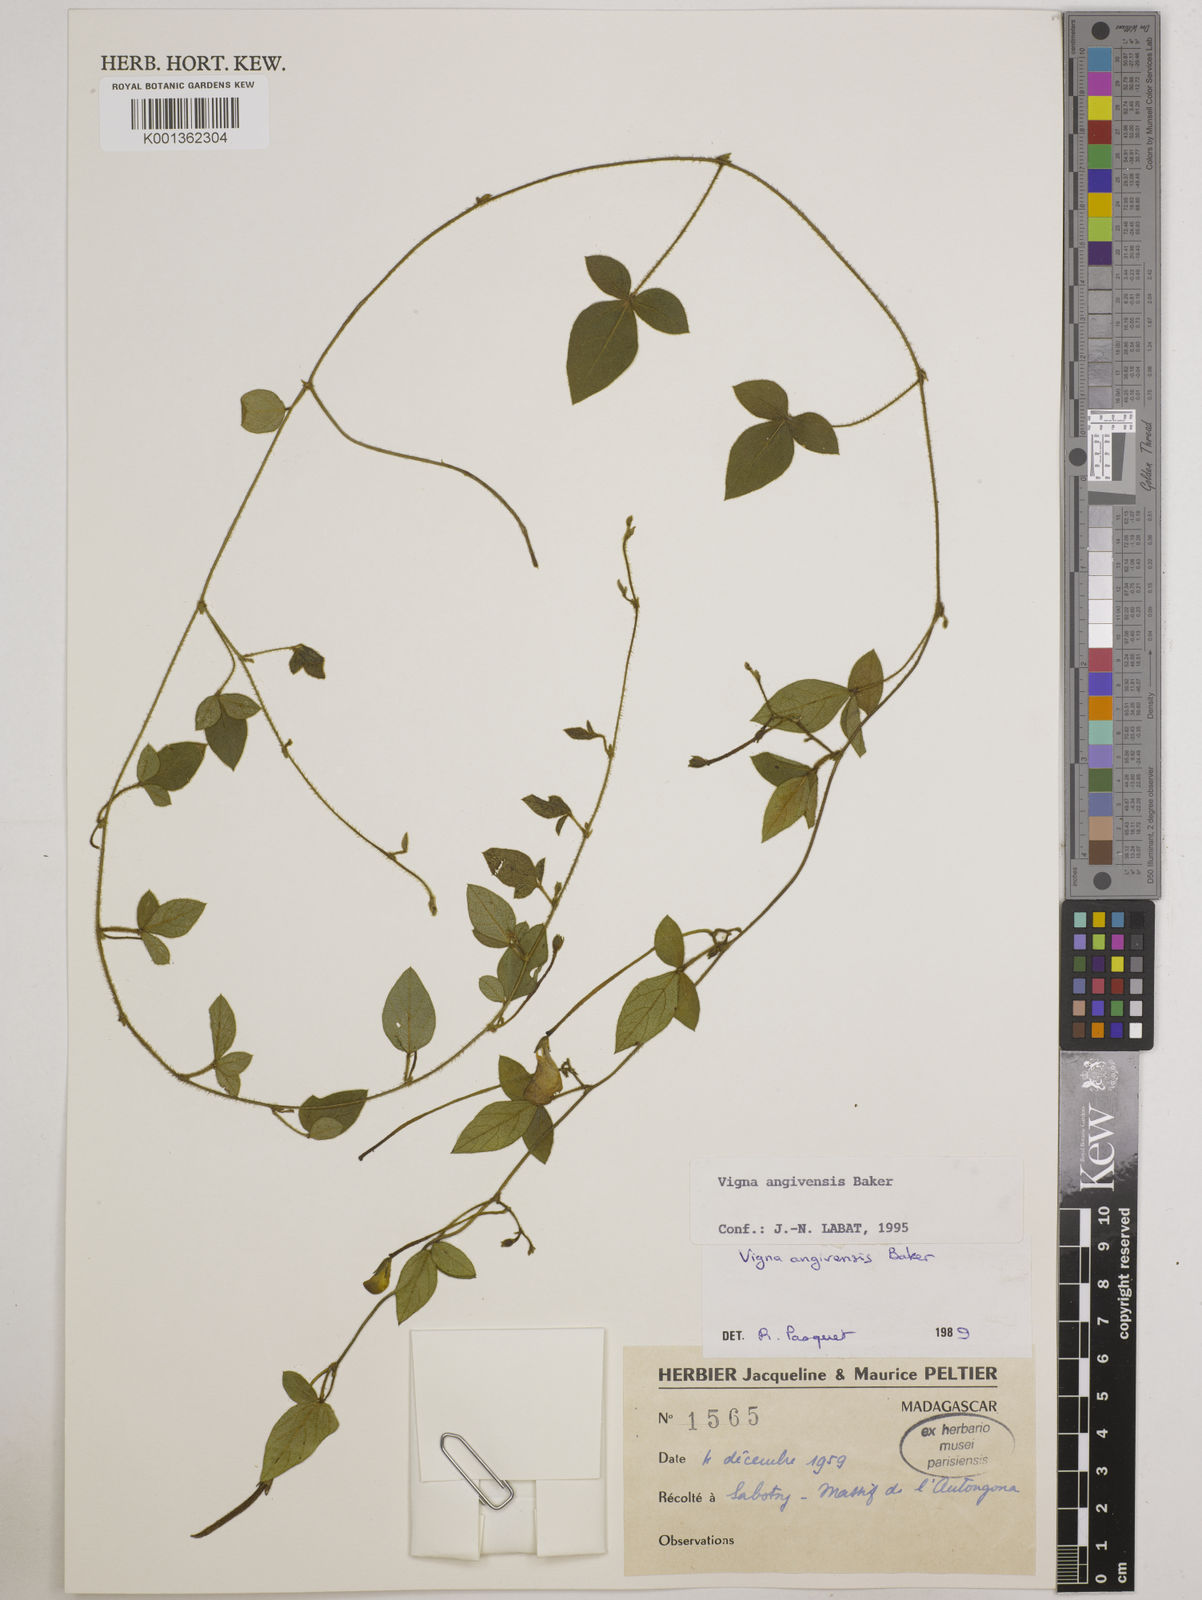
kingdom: Plantae
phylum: Tracheophyta
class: Magnoliopsida
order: Fabales
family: Fabaceae
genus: Vigna
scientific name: Vigna angivensis
